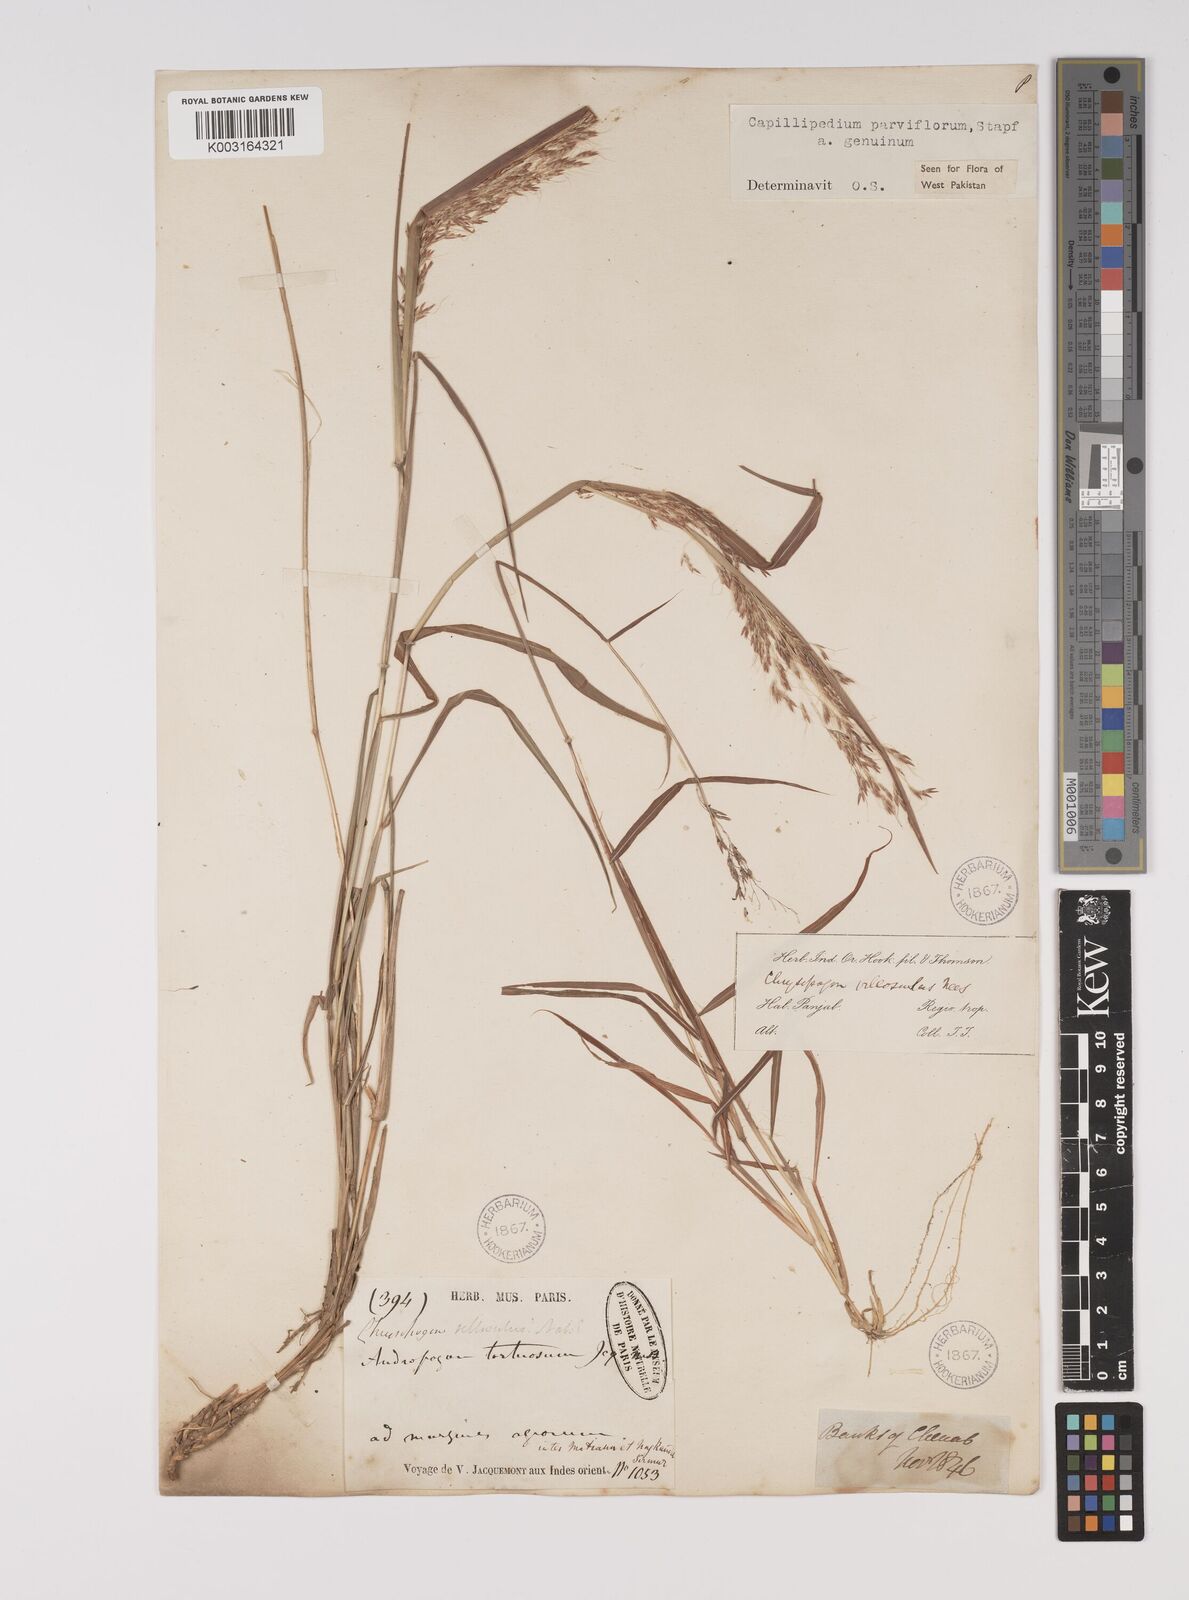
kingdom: Plantae
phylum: Tracheophyta
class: Liliopsida
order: Poales
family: Poaceae
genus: Capillipedium
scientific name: Capillipedium parviflorum
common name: Golden-beard
